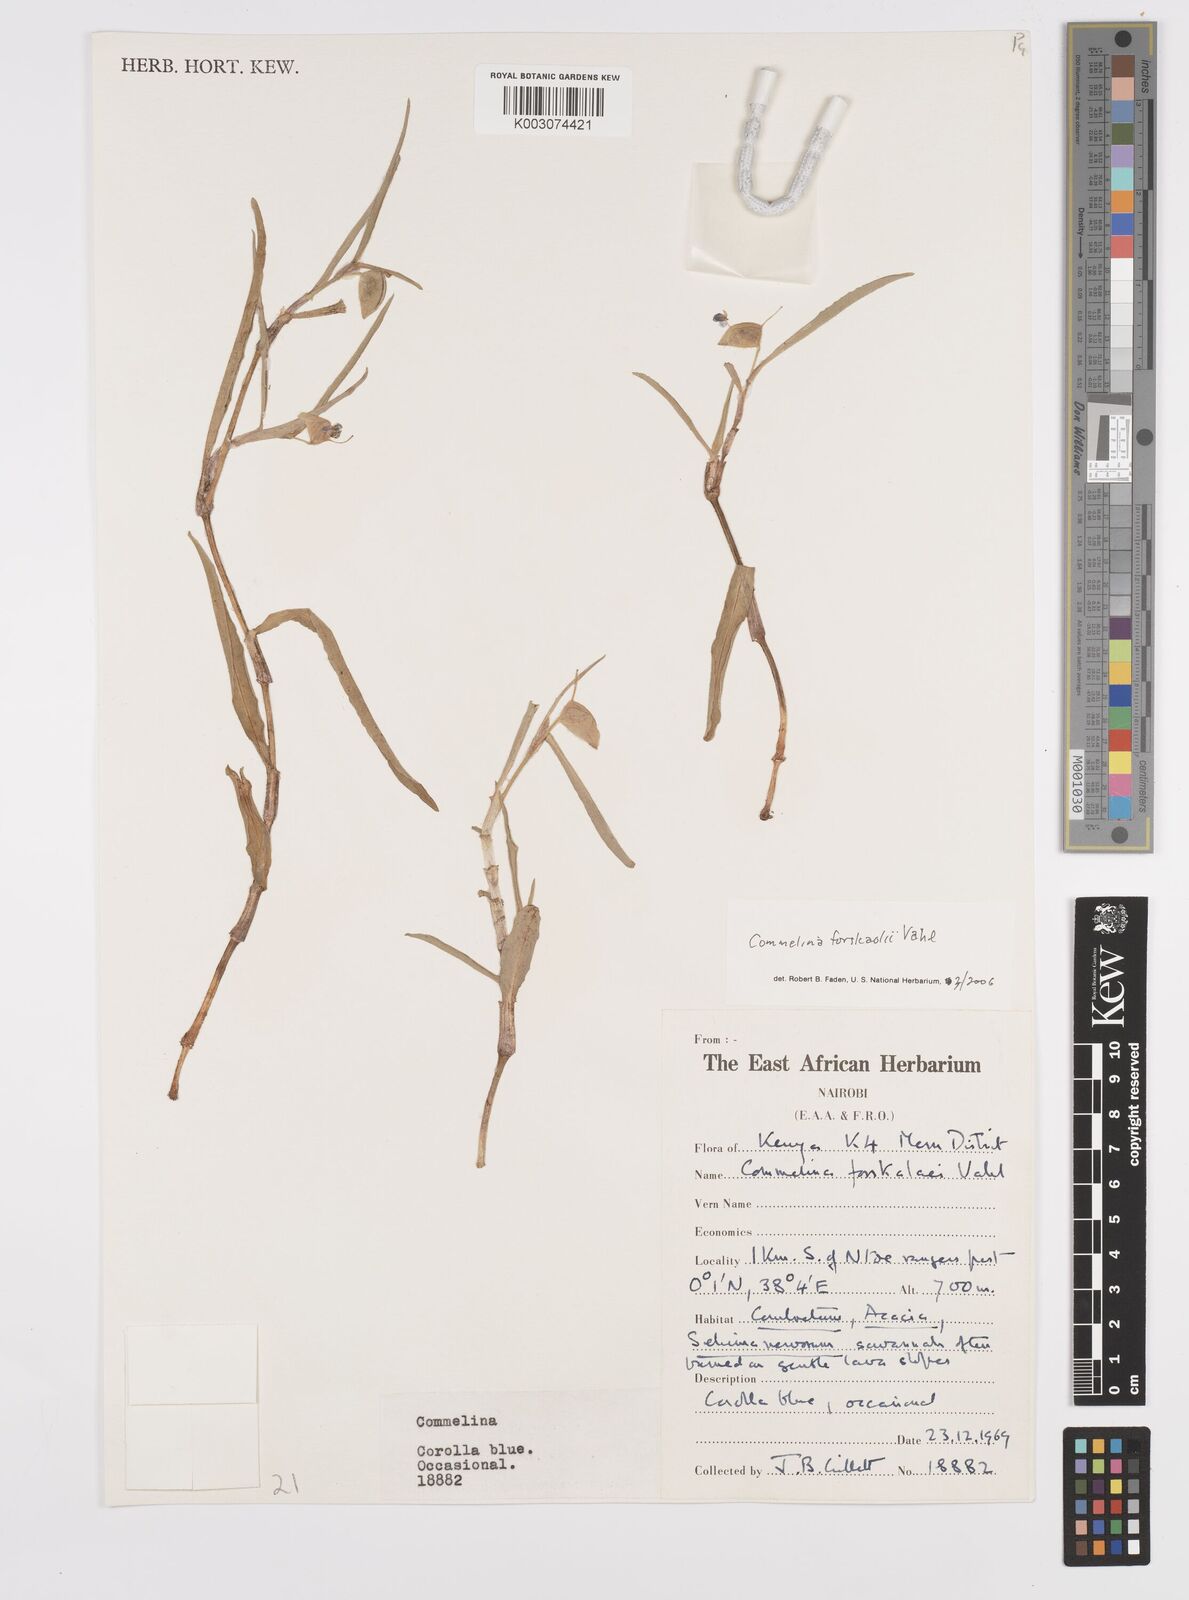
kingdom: Plantae
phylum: Tracheophyta
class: Liliopsida
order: Commelinales
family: Commelinaceae
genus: Commelina
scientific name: Commelina forskaolii
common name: Rat's ear
